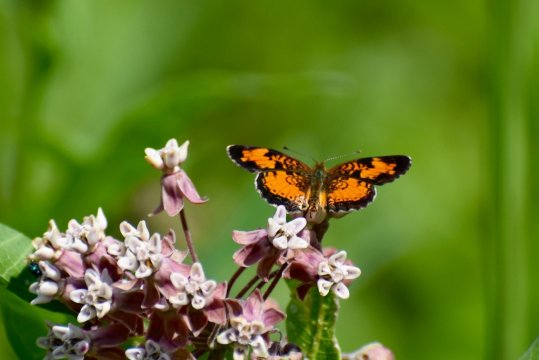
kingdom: Animalia
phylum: Arthropoda
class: Insecta
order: Lepidoptera
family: Nymphalidae
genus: Phyciodes
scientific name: Phyciodes tharos
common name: Northern Crescent
